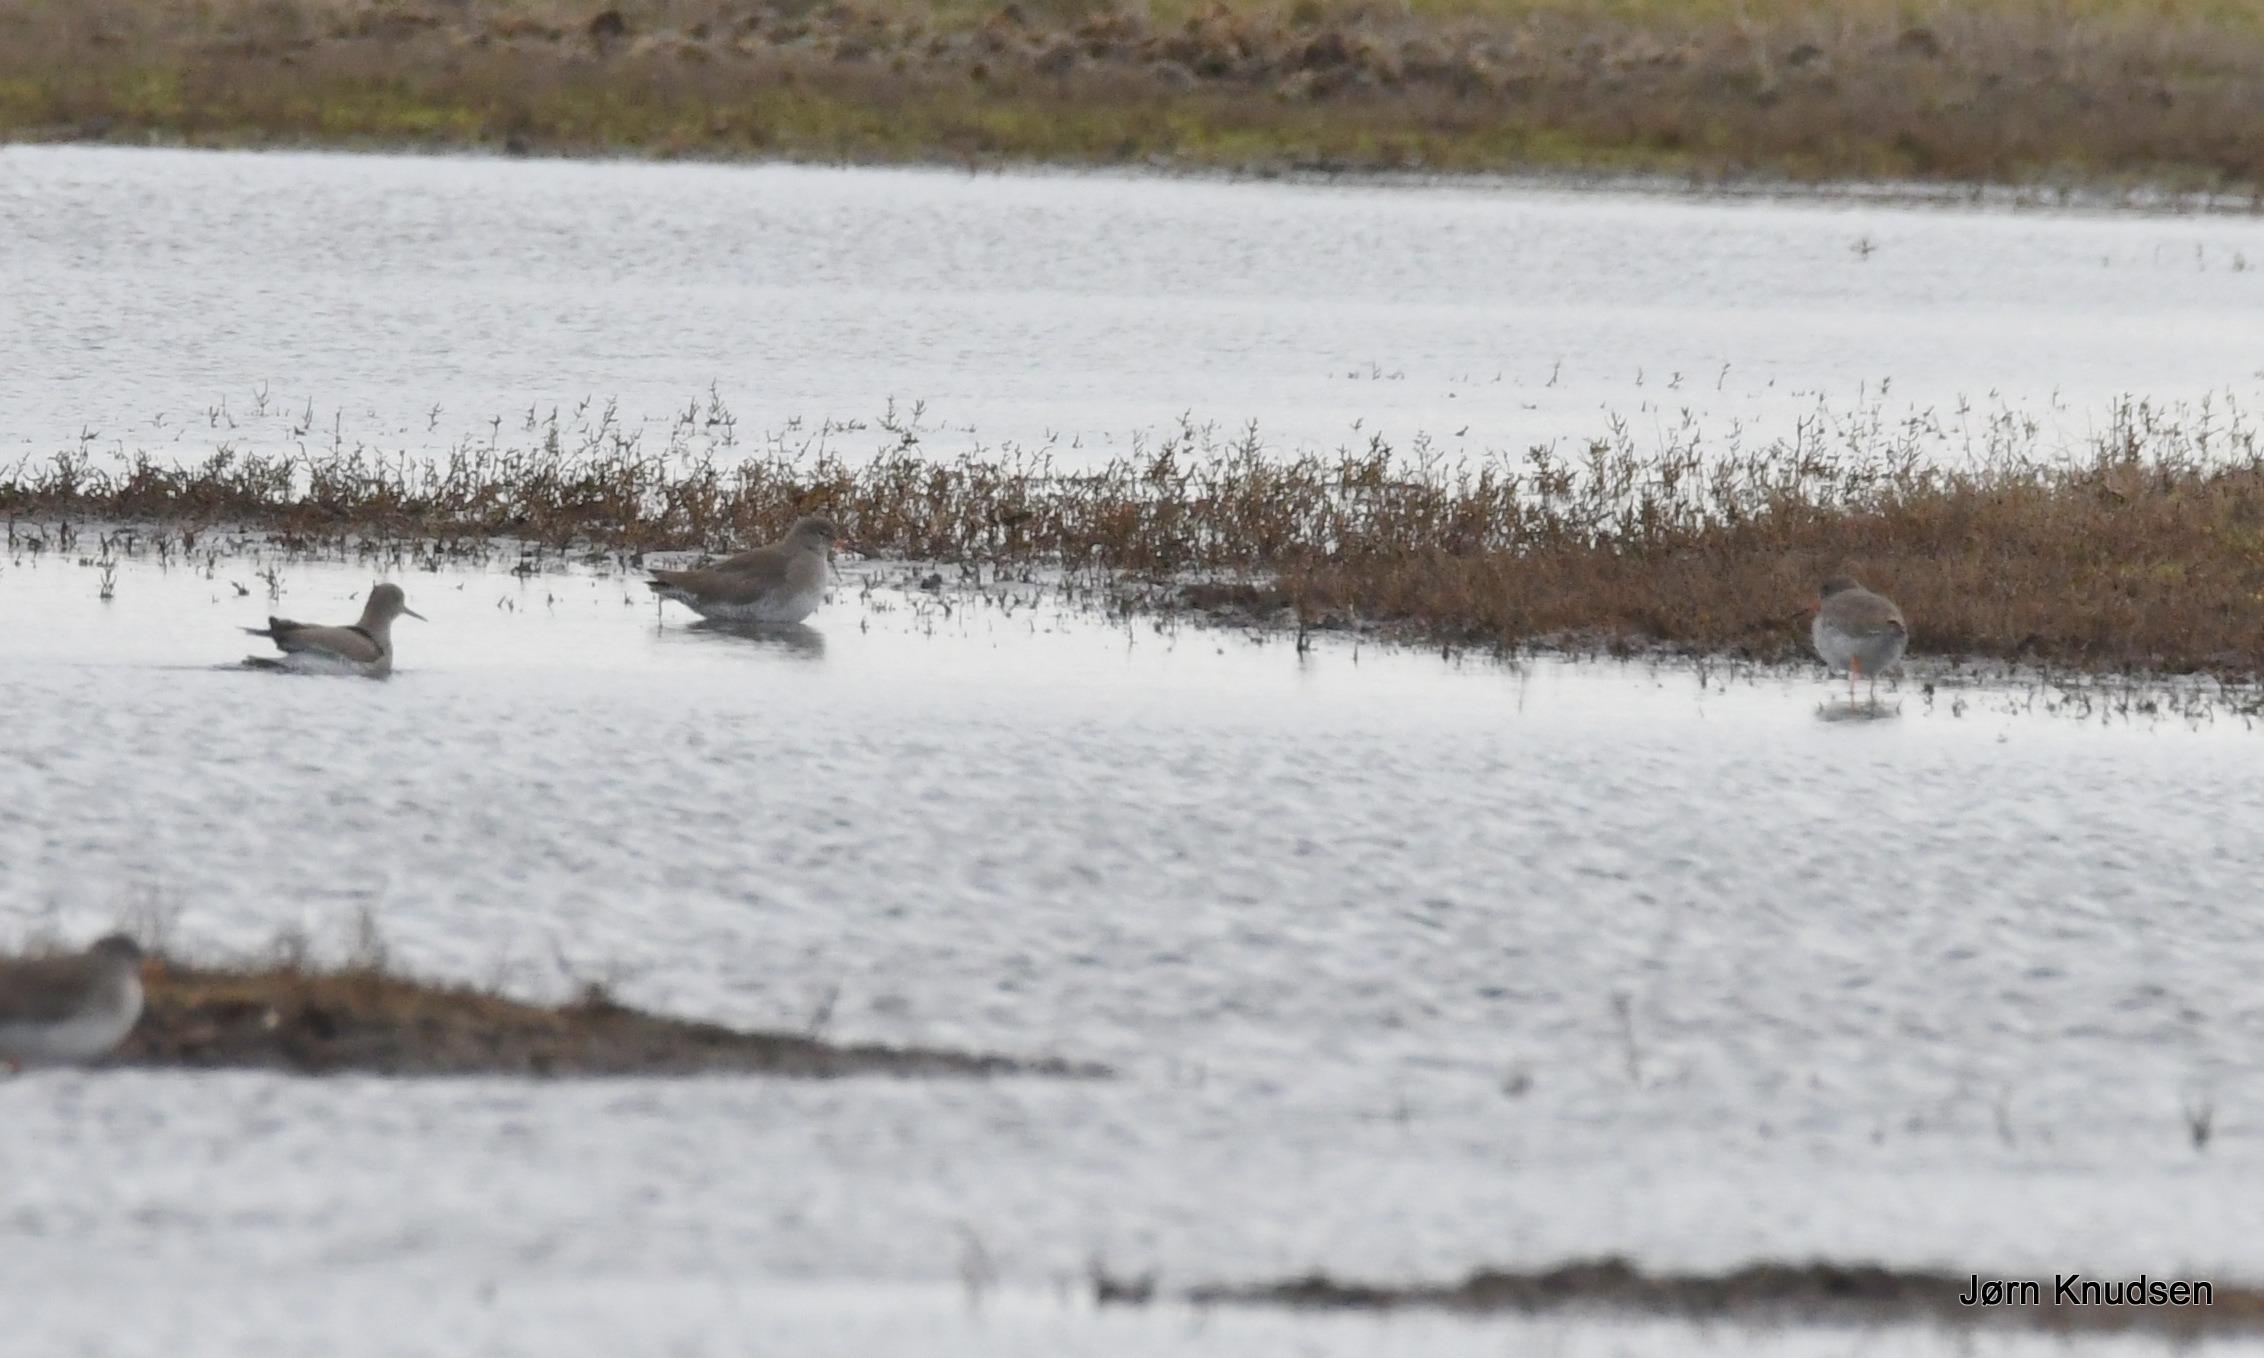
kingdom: Animalia
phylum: Chordata
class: Aves
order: Charadriiformes
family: Scolopacidae
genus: Tringa
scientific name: Tringa totanus
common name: Rødben
